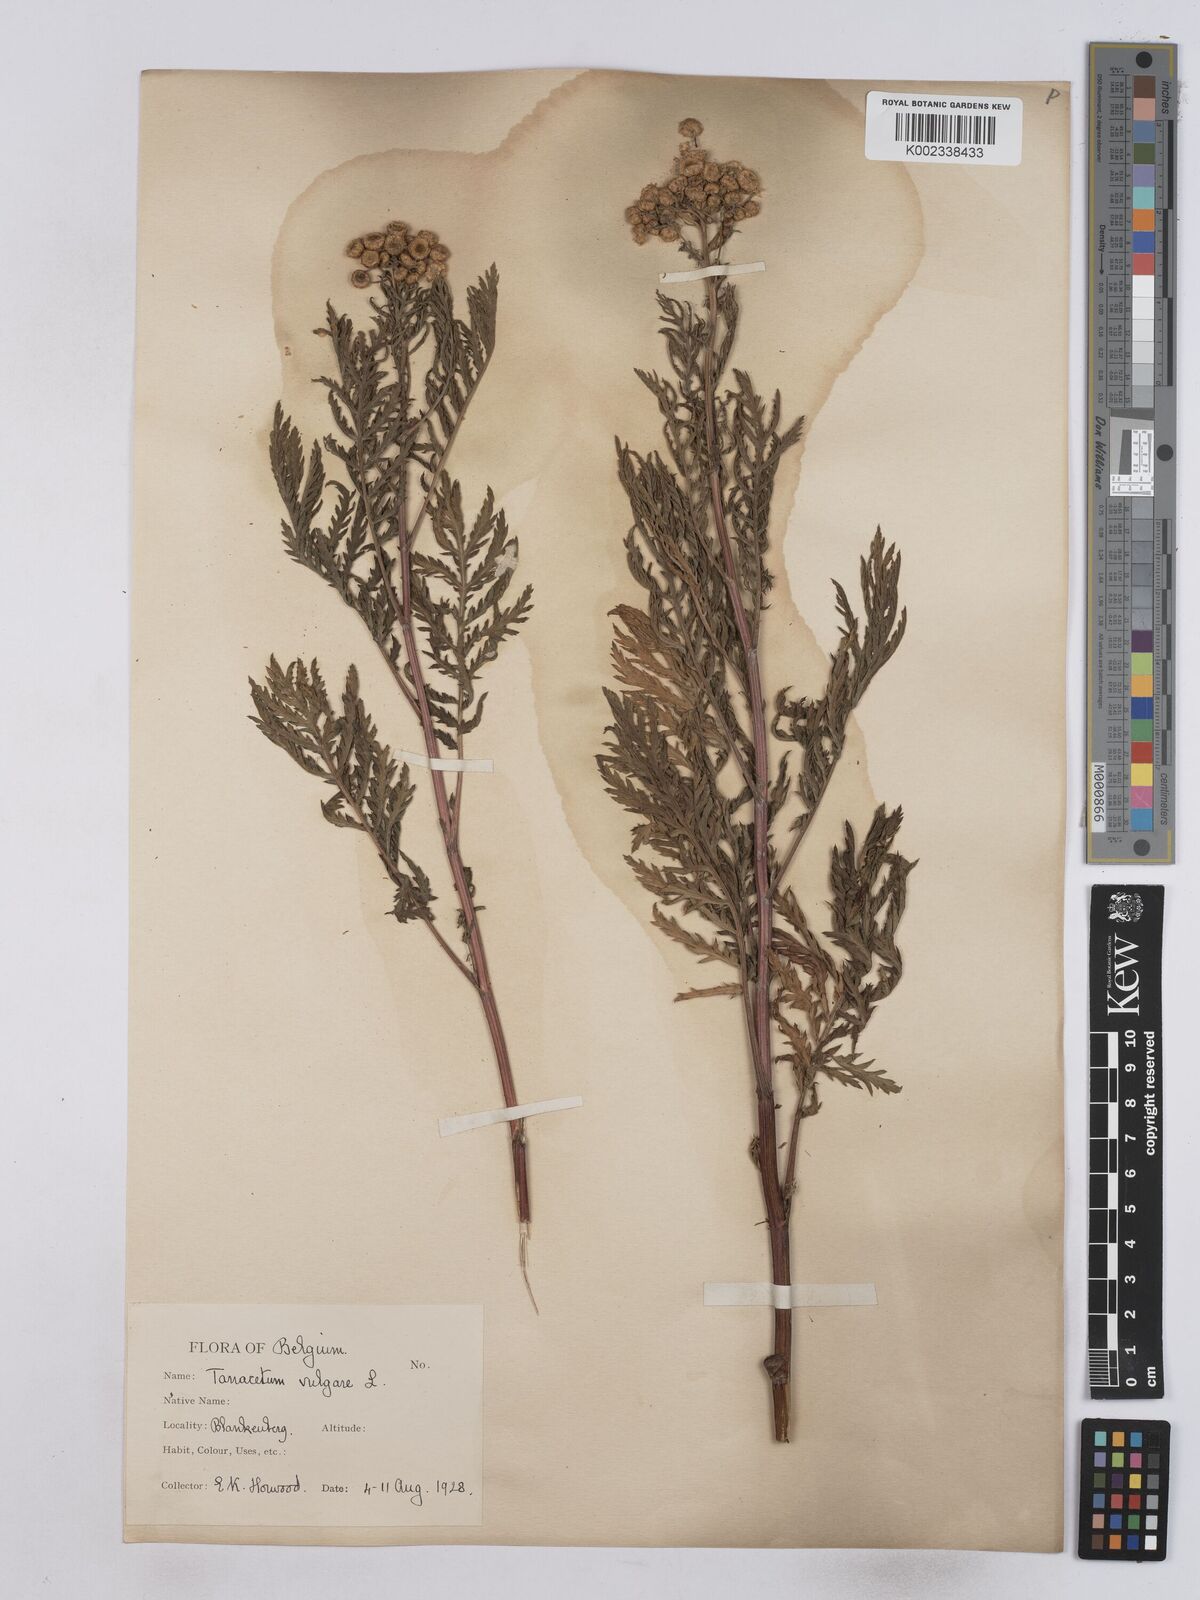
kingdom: Plantae
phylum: Tracheophyta
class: Magnoliopsida
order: Asterales
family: Asteraceae
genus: Tanacetum
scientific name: Tanacetum vulgare
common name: Common tansy
